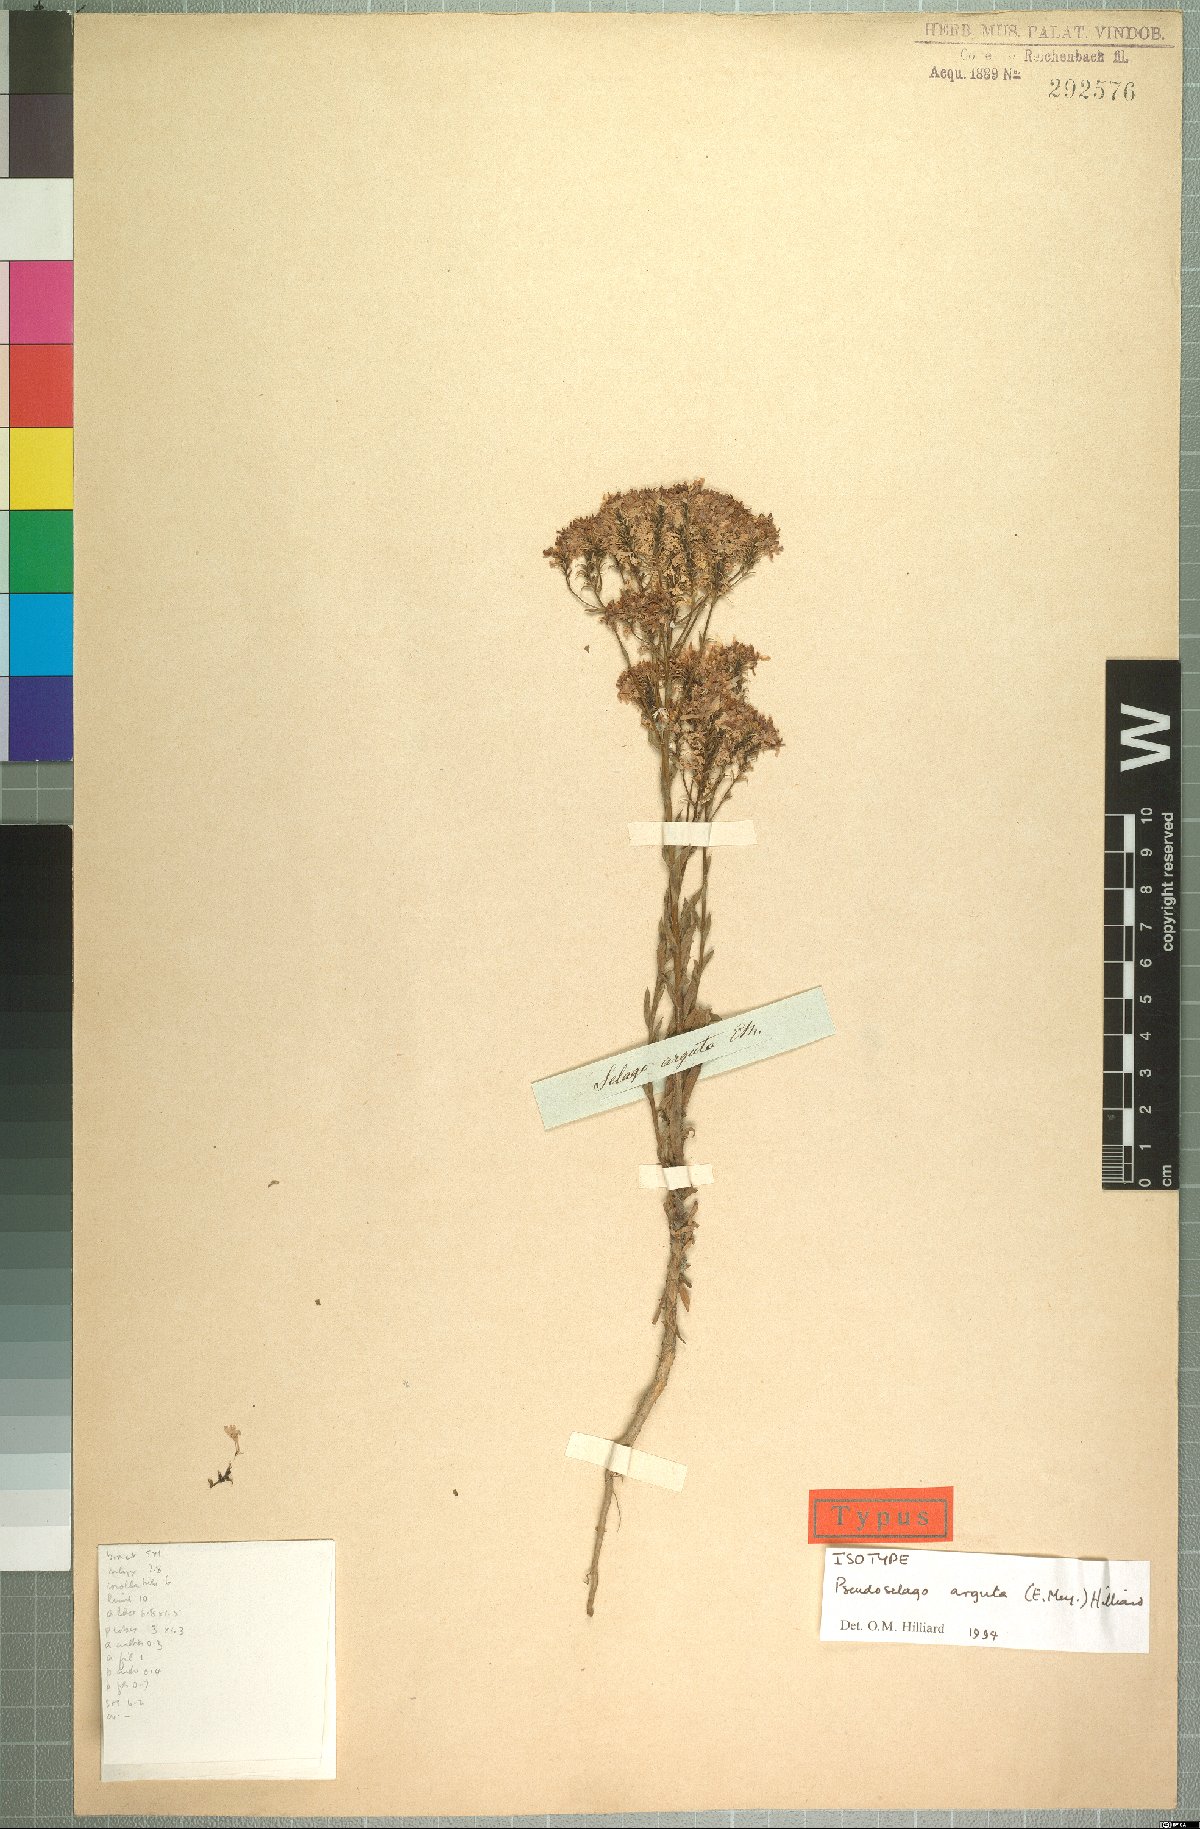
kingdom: Plantae
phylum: Tracheophyta
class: Magnoliopsida
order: Lamiales
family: Scrophulariaceae
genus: Pseudoselago
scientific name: Pseudoselago arguta
